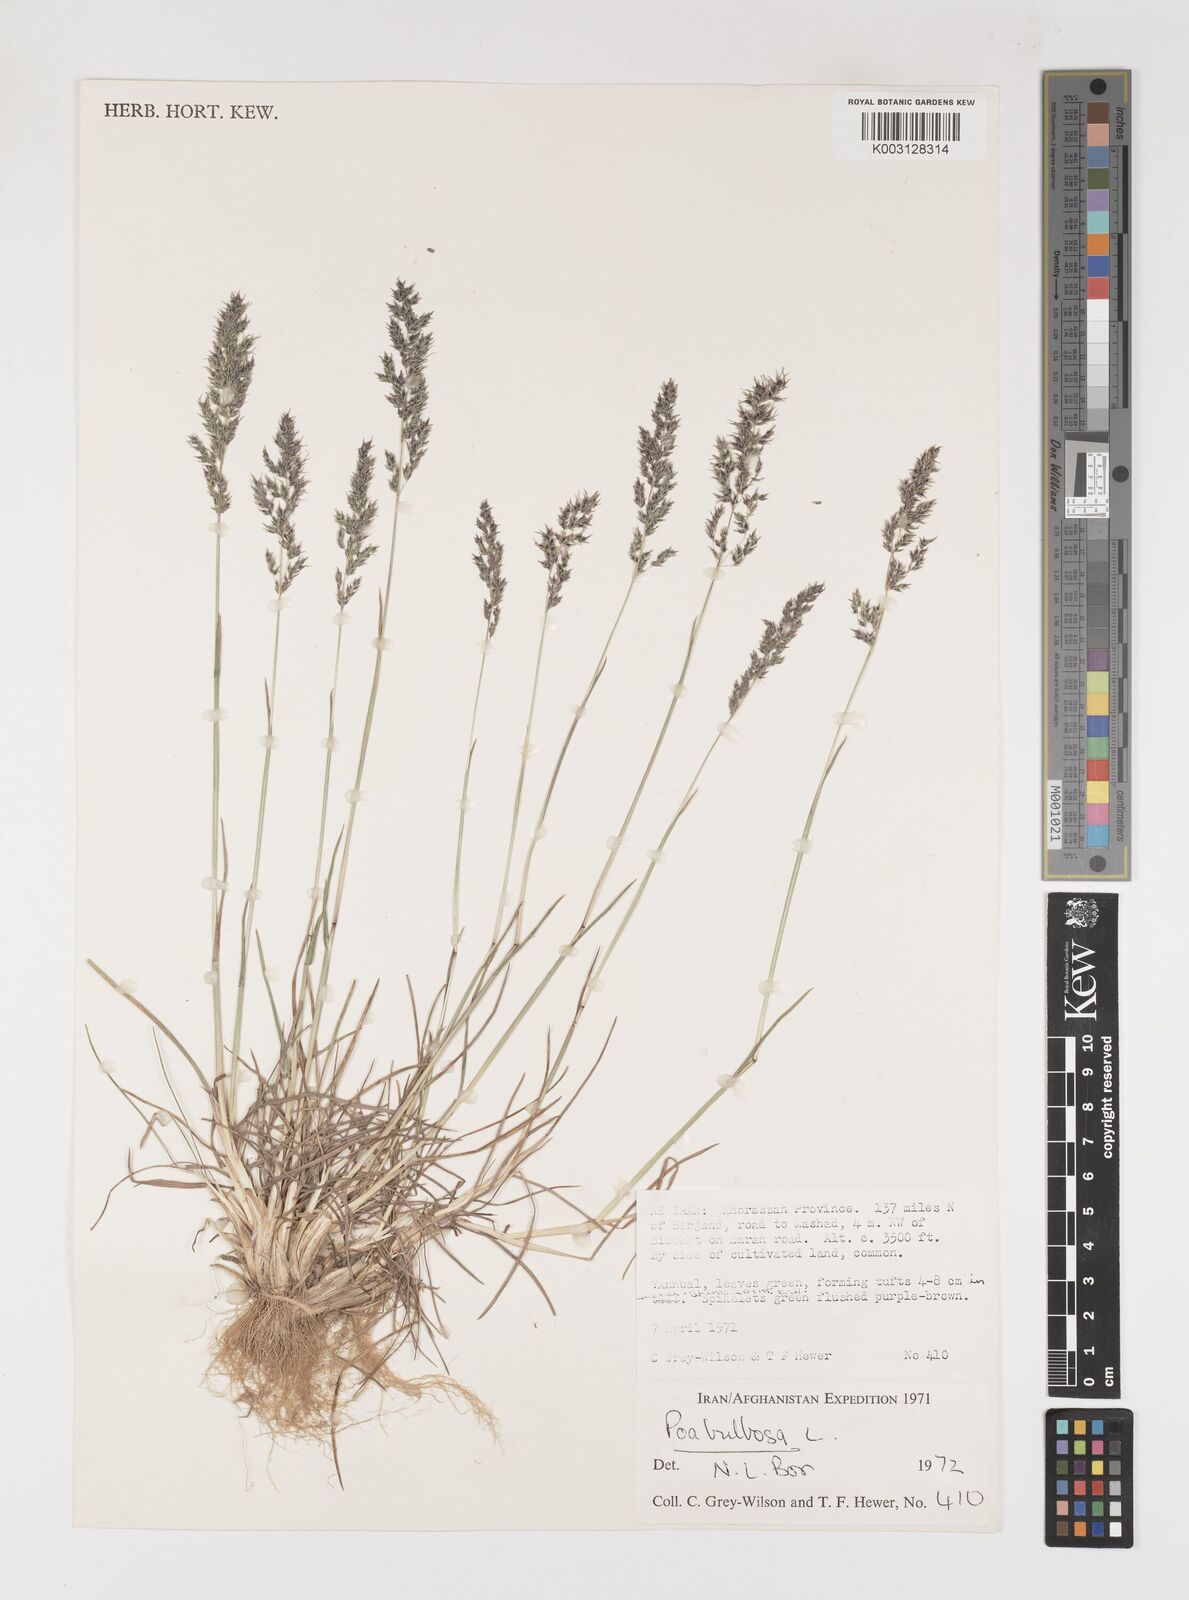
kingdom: Plantae
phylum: Tracheophyta
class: Liliopsida
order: Poales
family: Poaceae
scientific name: Poaceae
